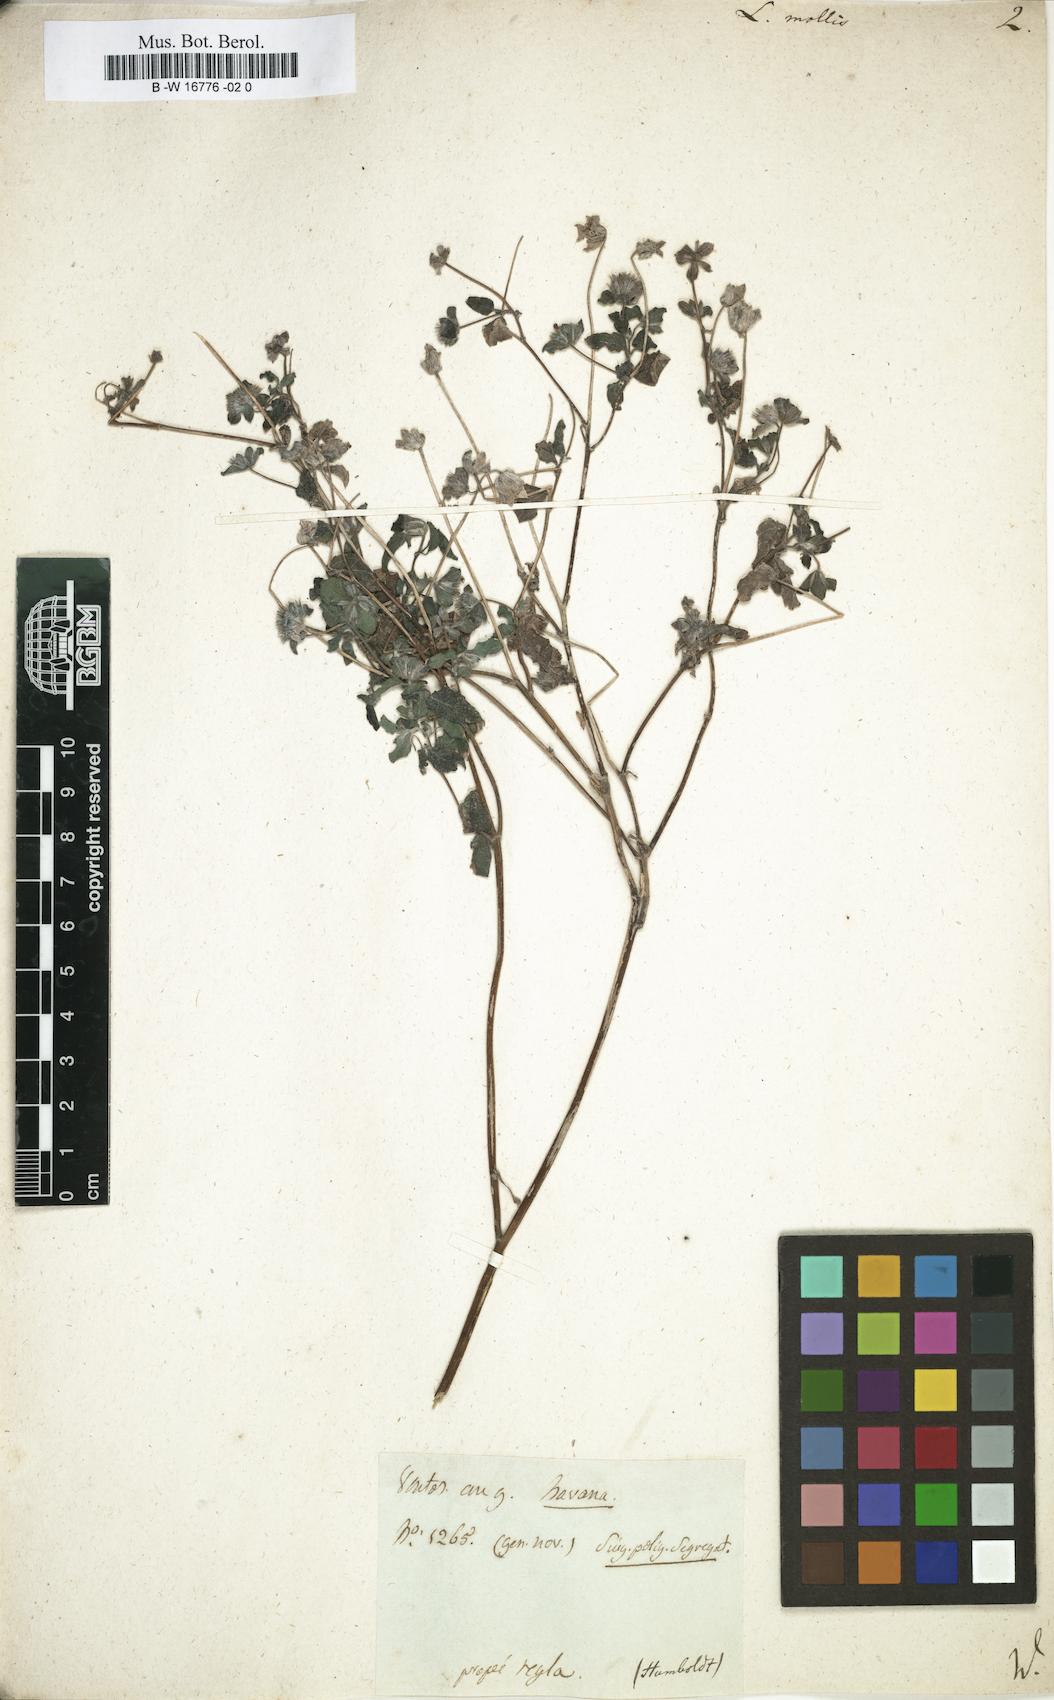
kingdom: Plantae
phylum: Tracheophyta
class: Magnoliopsida
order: Asterales
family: Asteraceae
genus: Lagascea
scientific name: Lagascea mollis
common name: Silkleaf
